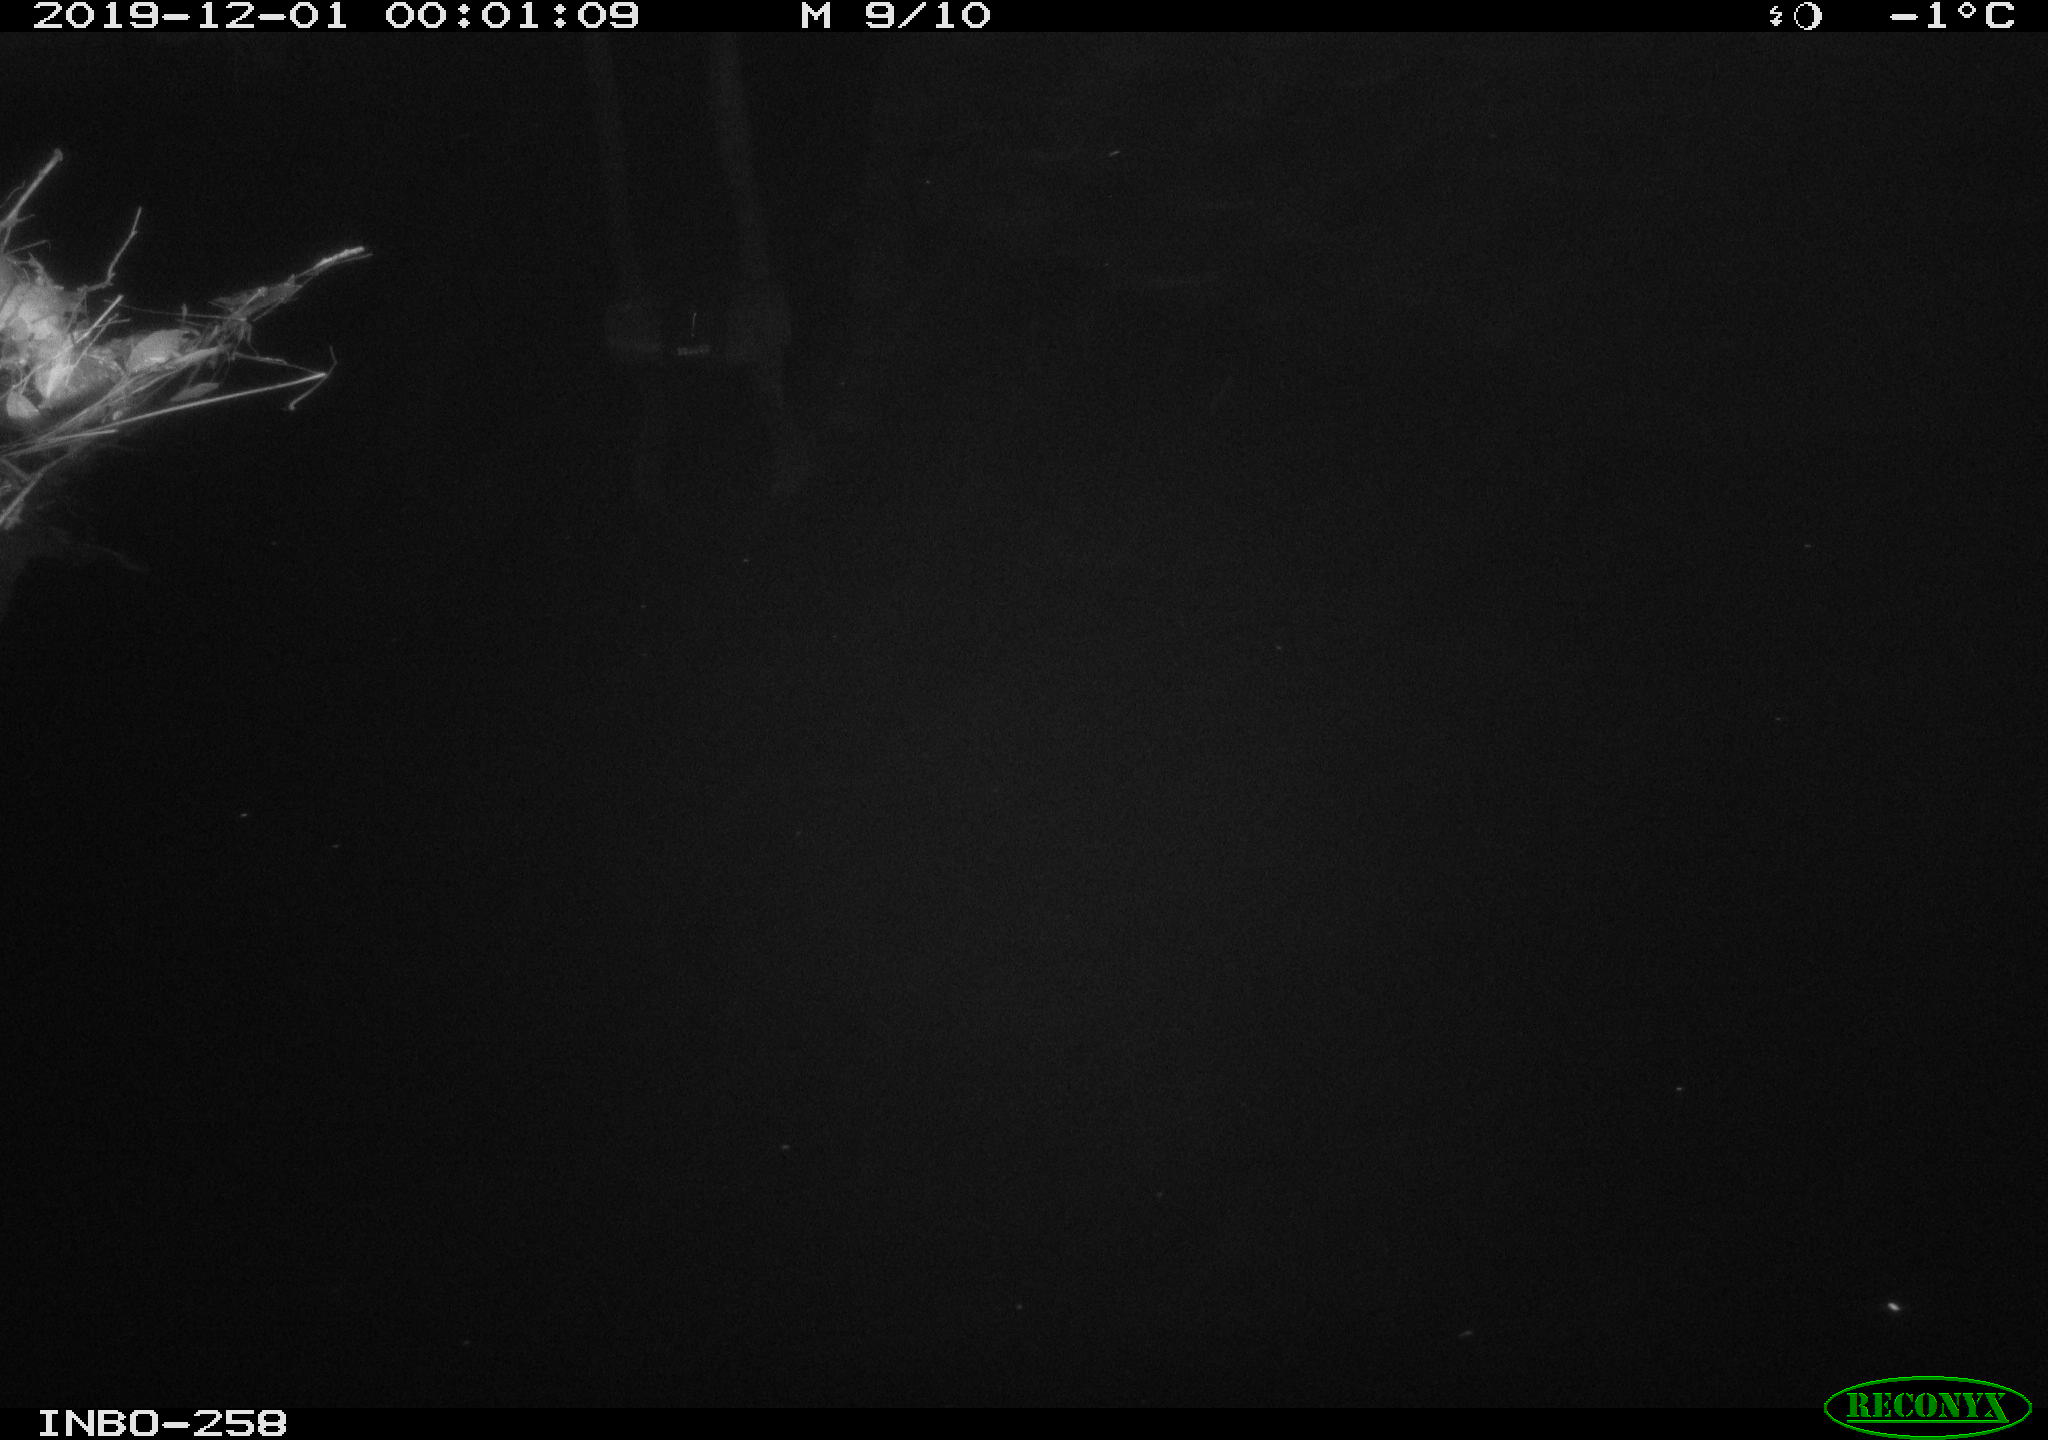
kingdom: Animalia
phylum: Chordata
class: Aves
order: Anseriformes
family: Anatidae
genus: Anas
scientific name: Anas platyrhynchos
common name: Mallard
